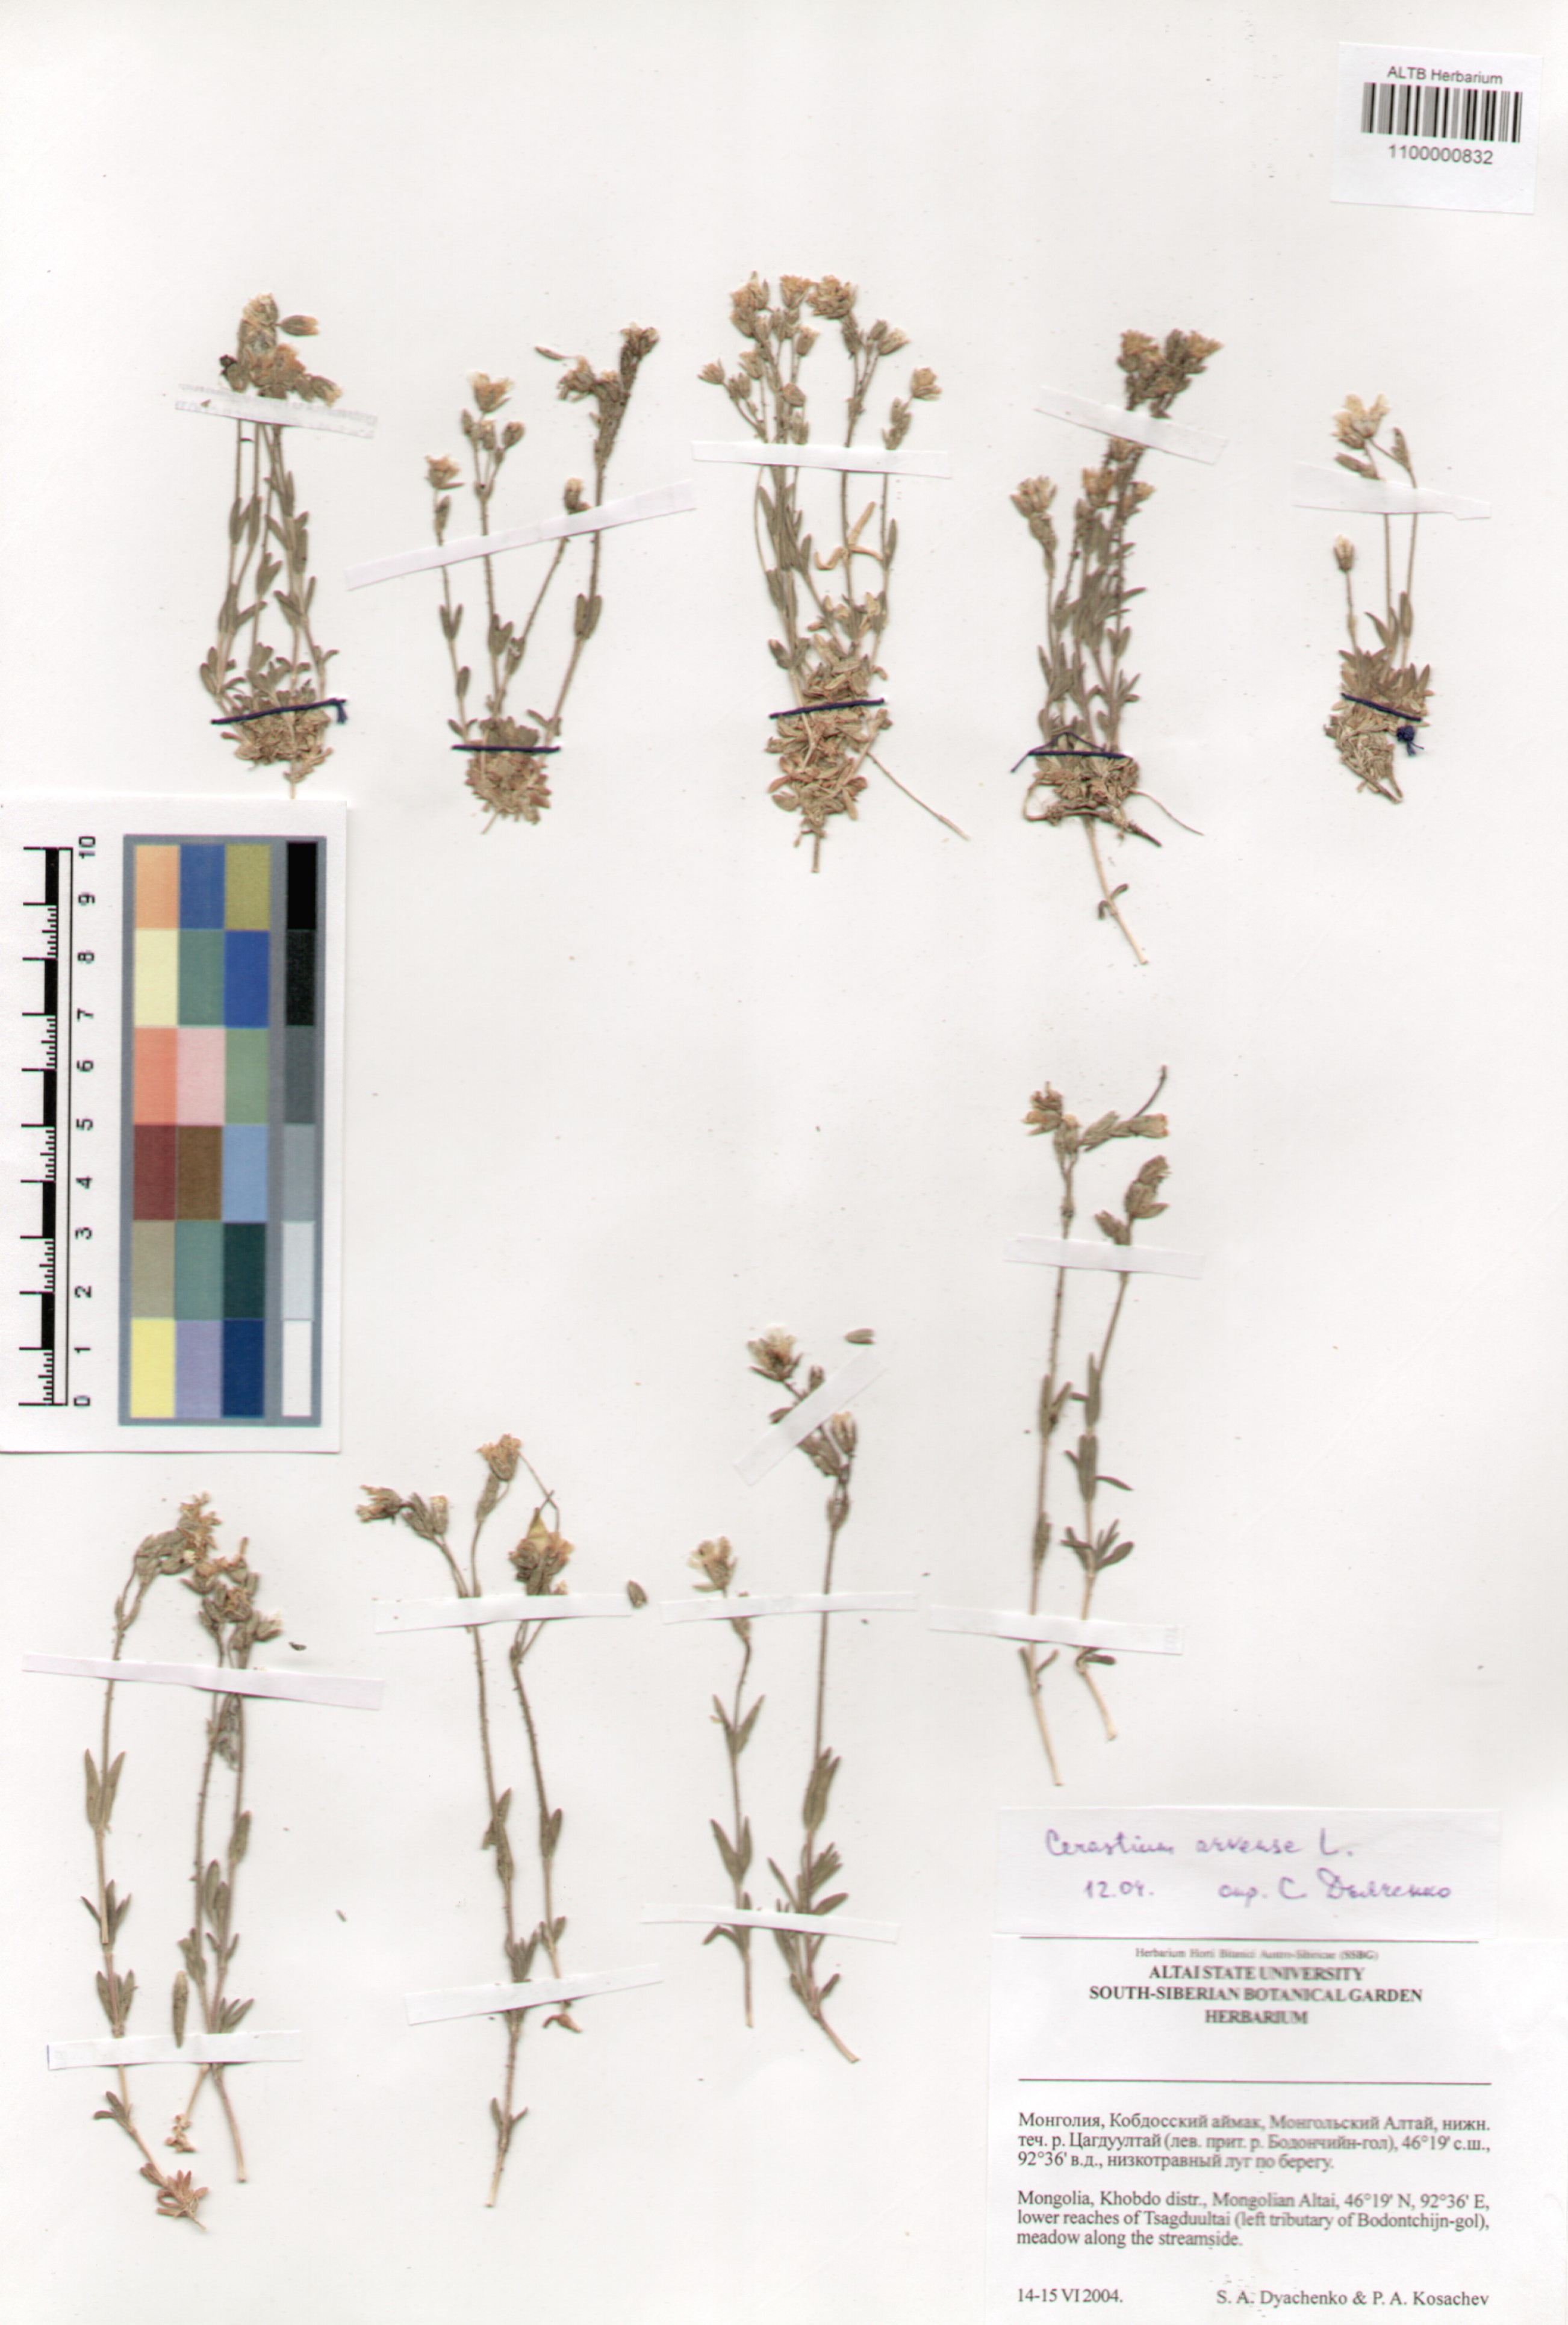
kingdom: Plantae
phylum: Tracheophyta
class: Magnoliopsida
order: Caryophyllales
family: Caryophyllaceae
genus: Cerastium
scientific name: Cerastium arvense
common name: Field mouse-ear
